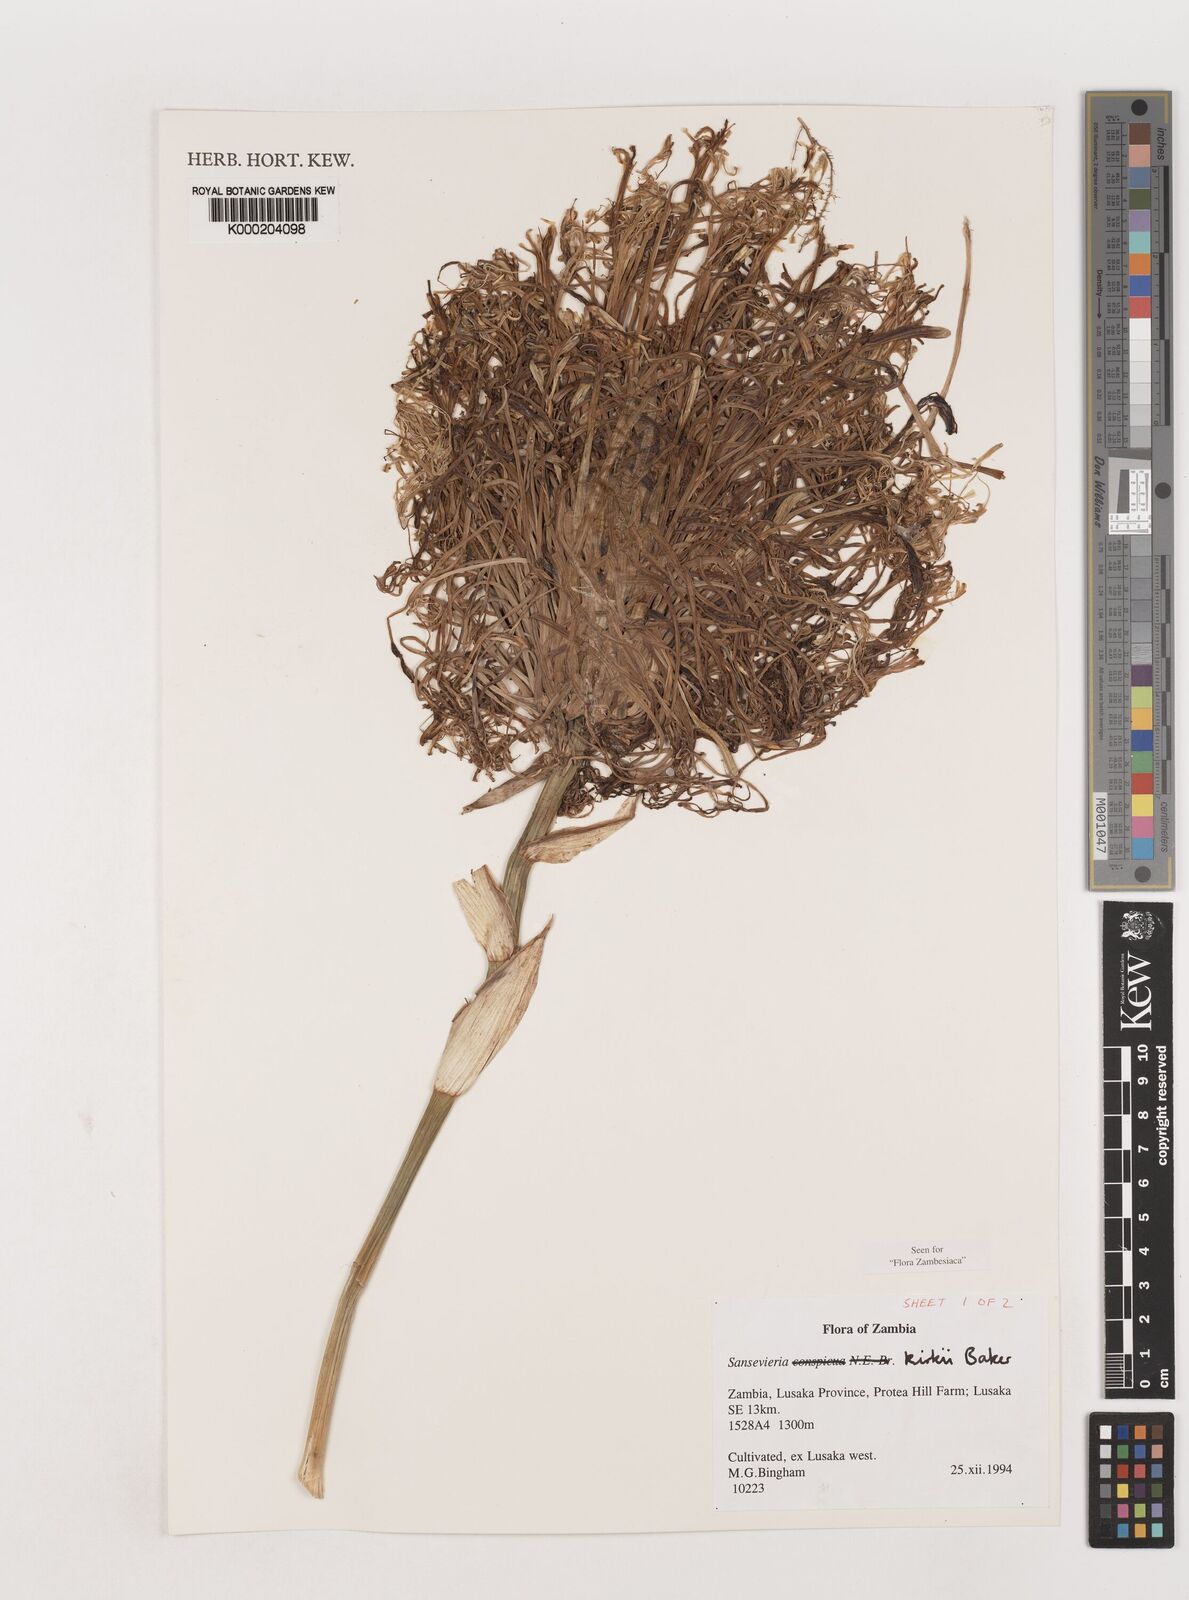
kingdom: Plantae
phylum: Tracheophyta
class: Liliopsida
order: Asparagales
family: Asparagaceae
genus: Dracaena
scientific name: Dracaena pethera
